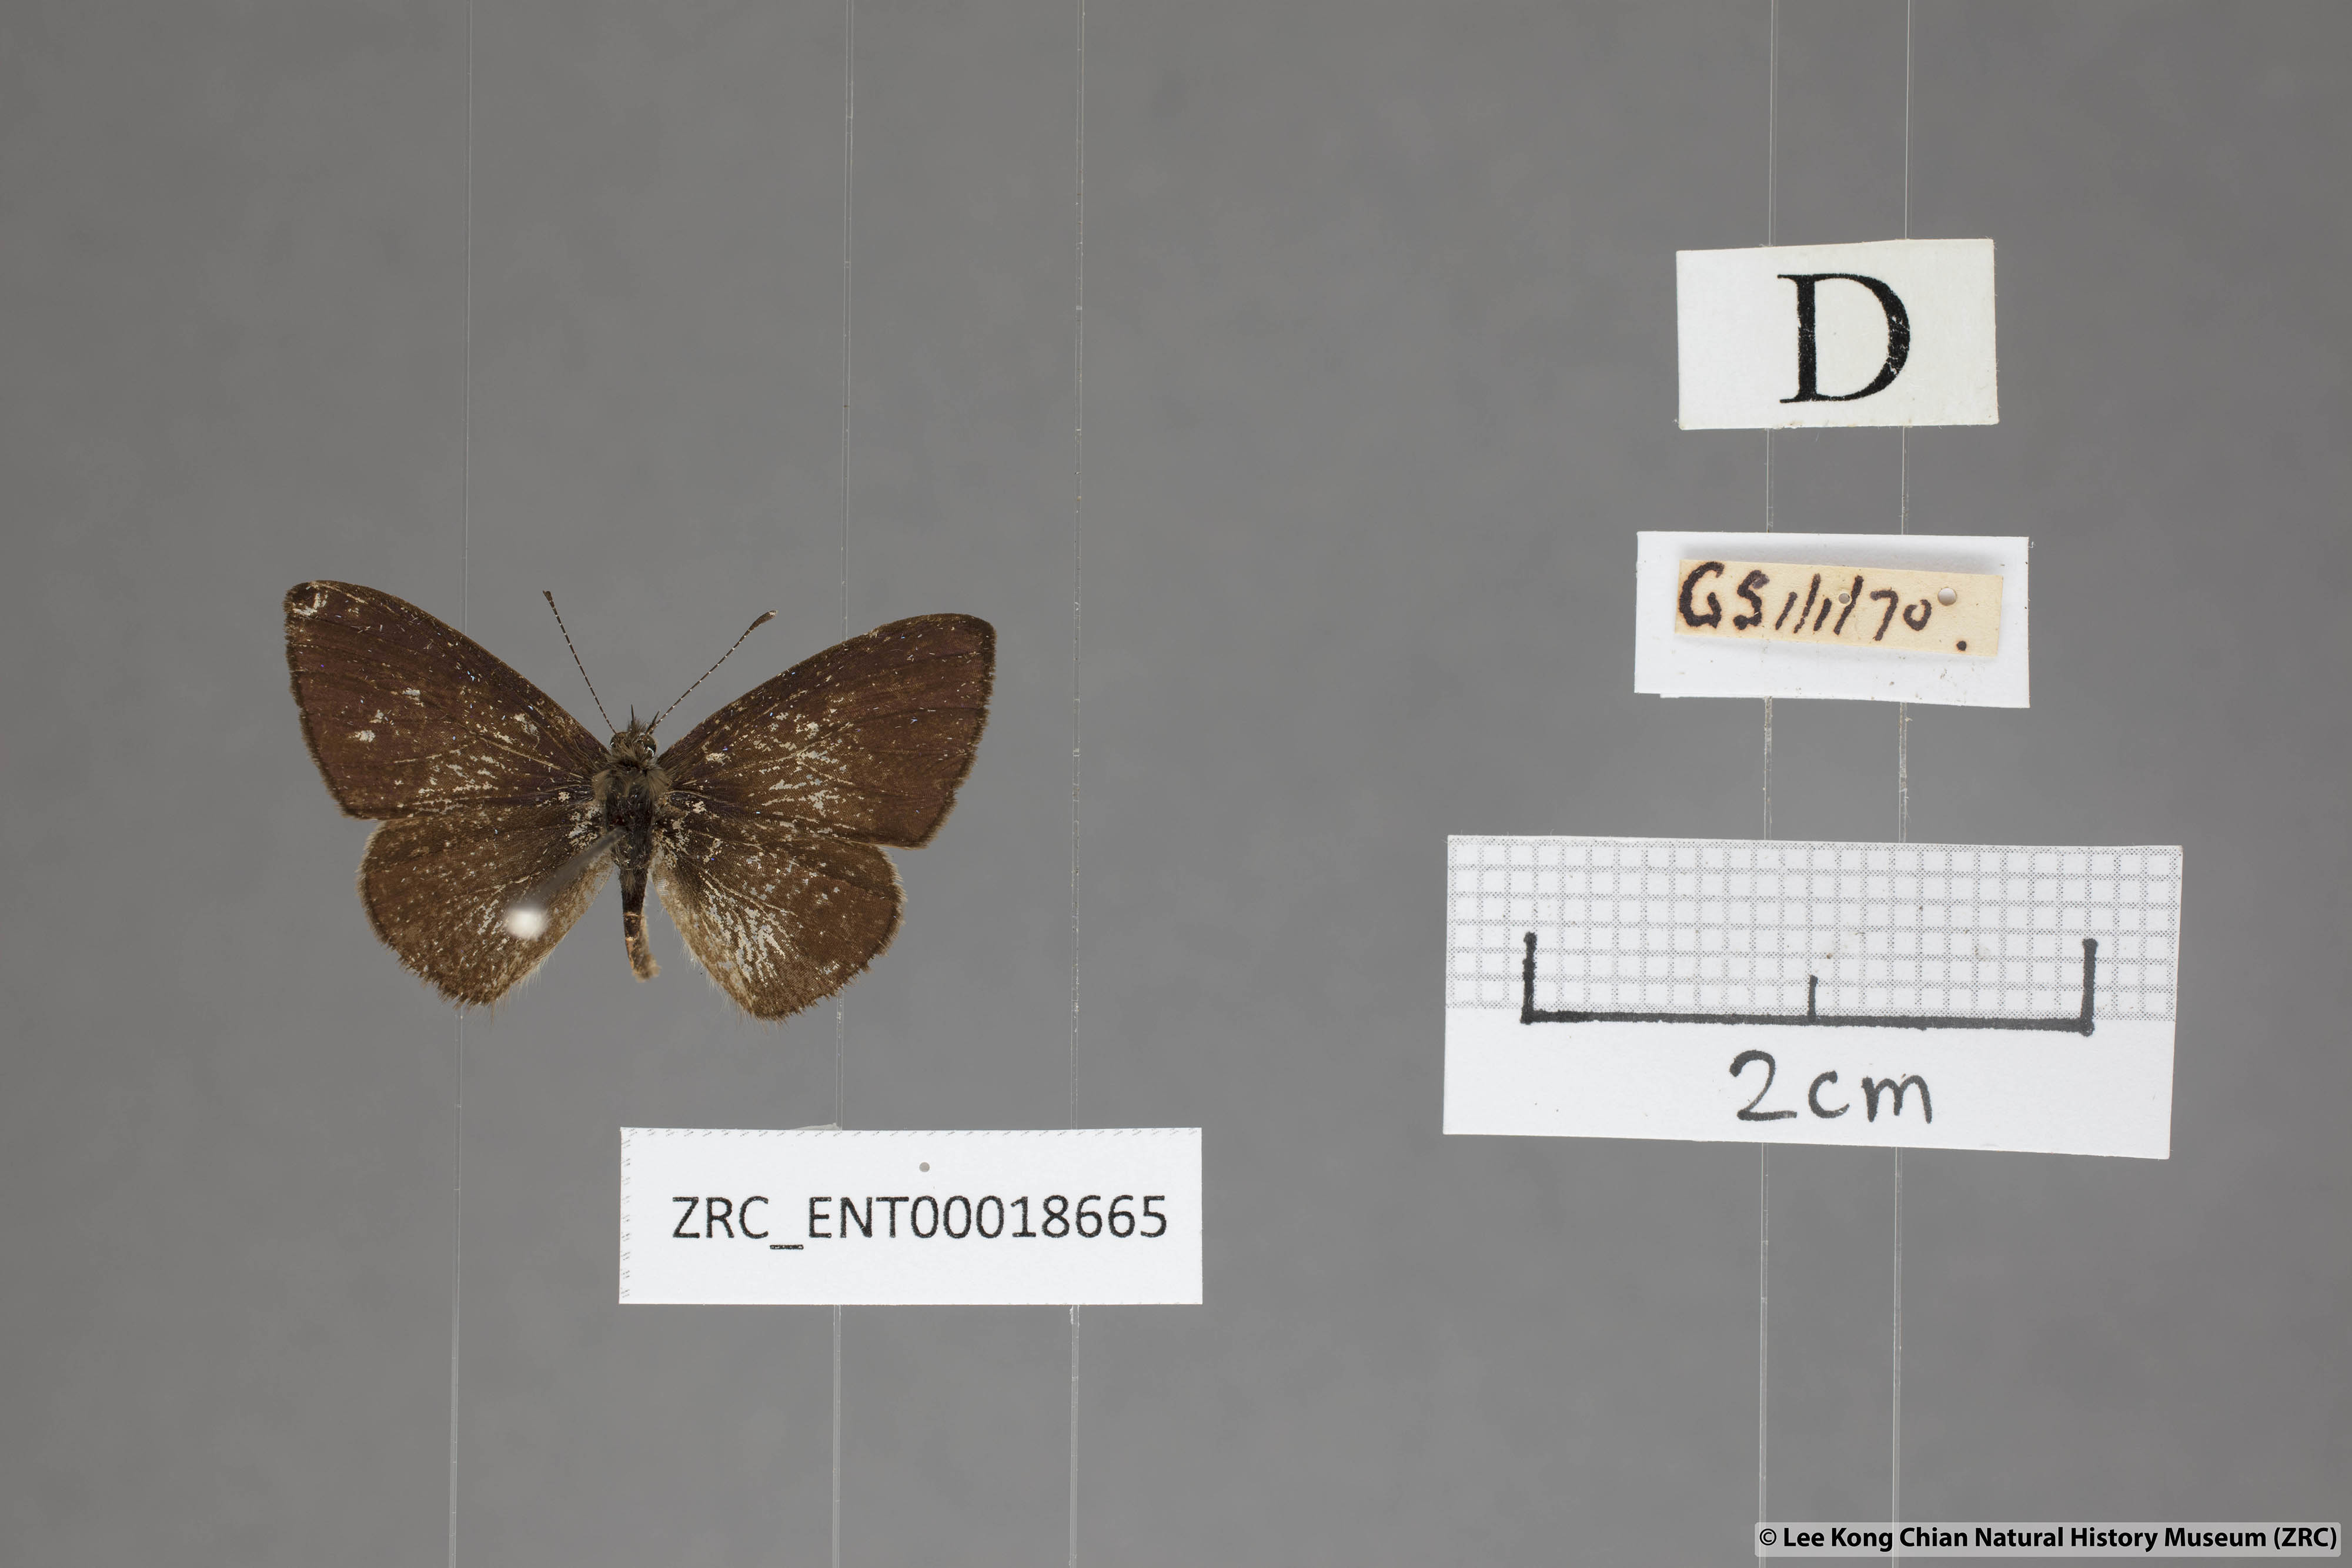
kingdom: Animalia
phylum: Arthropoda
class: Insecta
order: Lepidoptera
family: Lycaenidae
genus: Una
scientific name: Una usta
